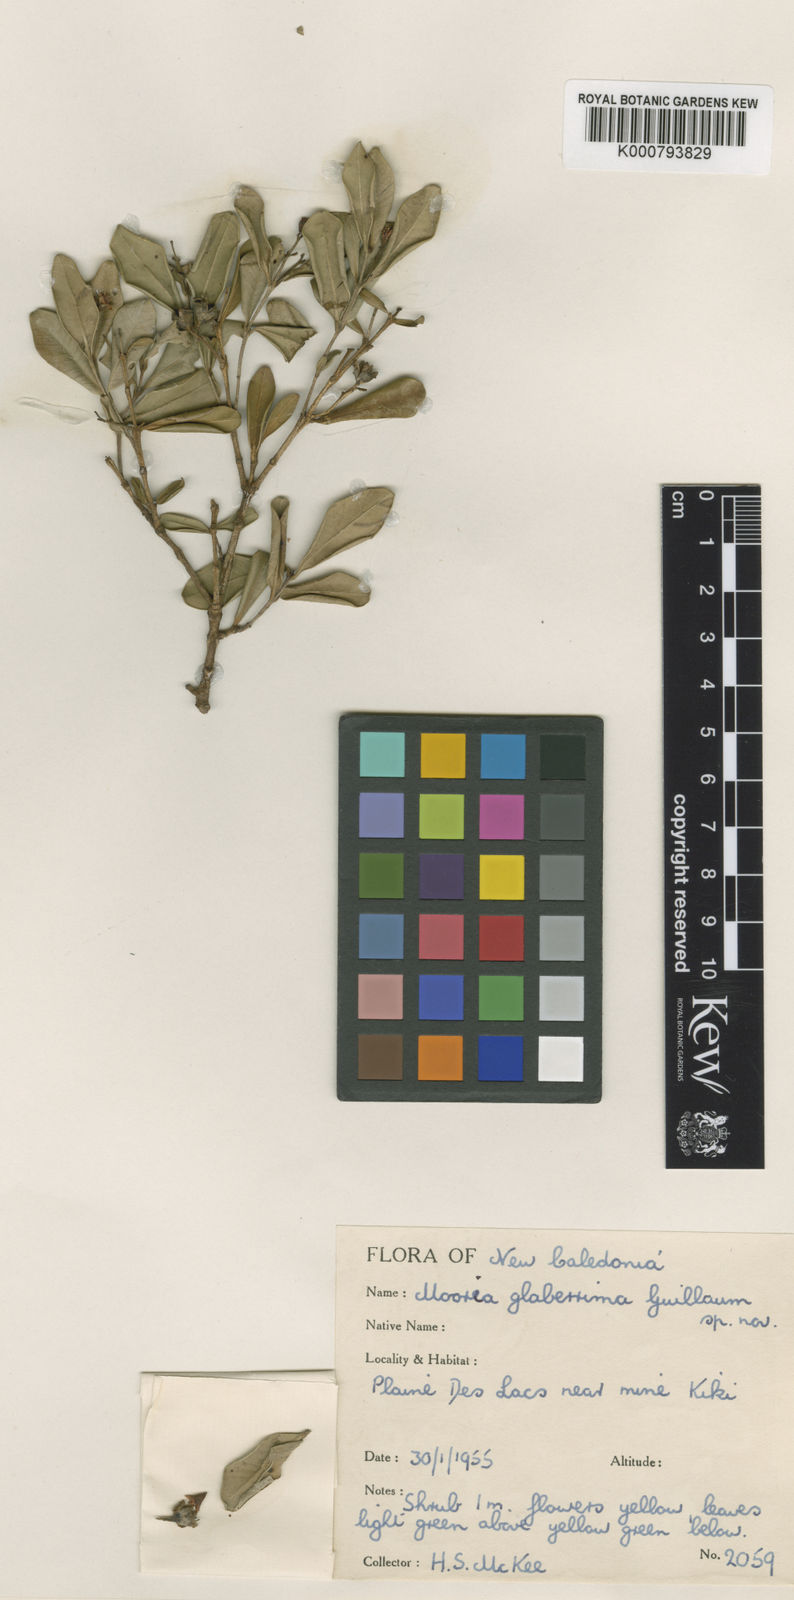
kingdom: Plantae
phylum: Tracheophyta
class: Magnoliopsida
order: Myrtales
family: Myrtaceae
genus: Cloezia
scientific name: Cloezia glaberrima
